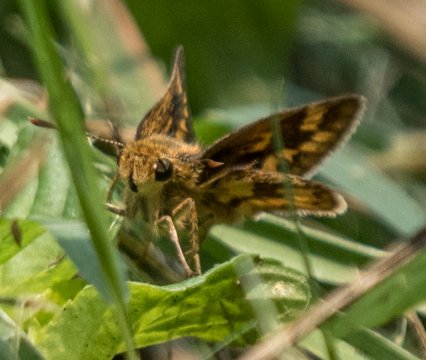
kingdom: Animalia
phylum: Arthropoda
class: Insecta
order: Lepidoptera
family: Hesperiidae
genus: Hesperia
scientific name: Hesperia leonardus
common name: Leonard's Skipper
